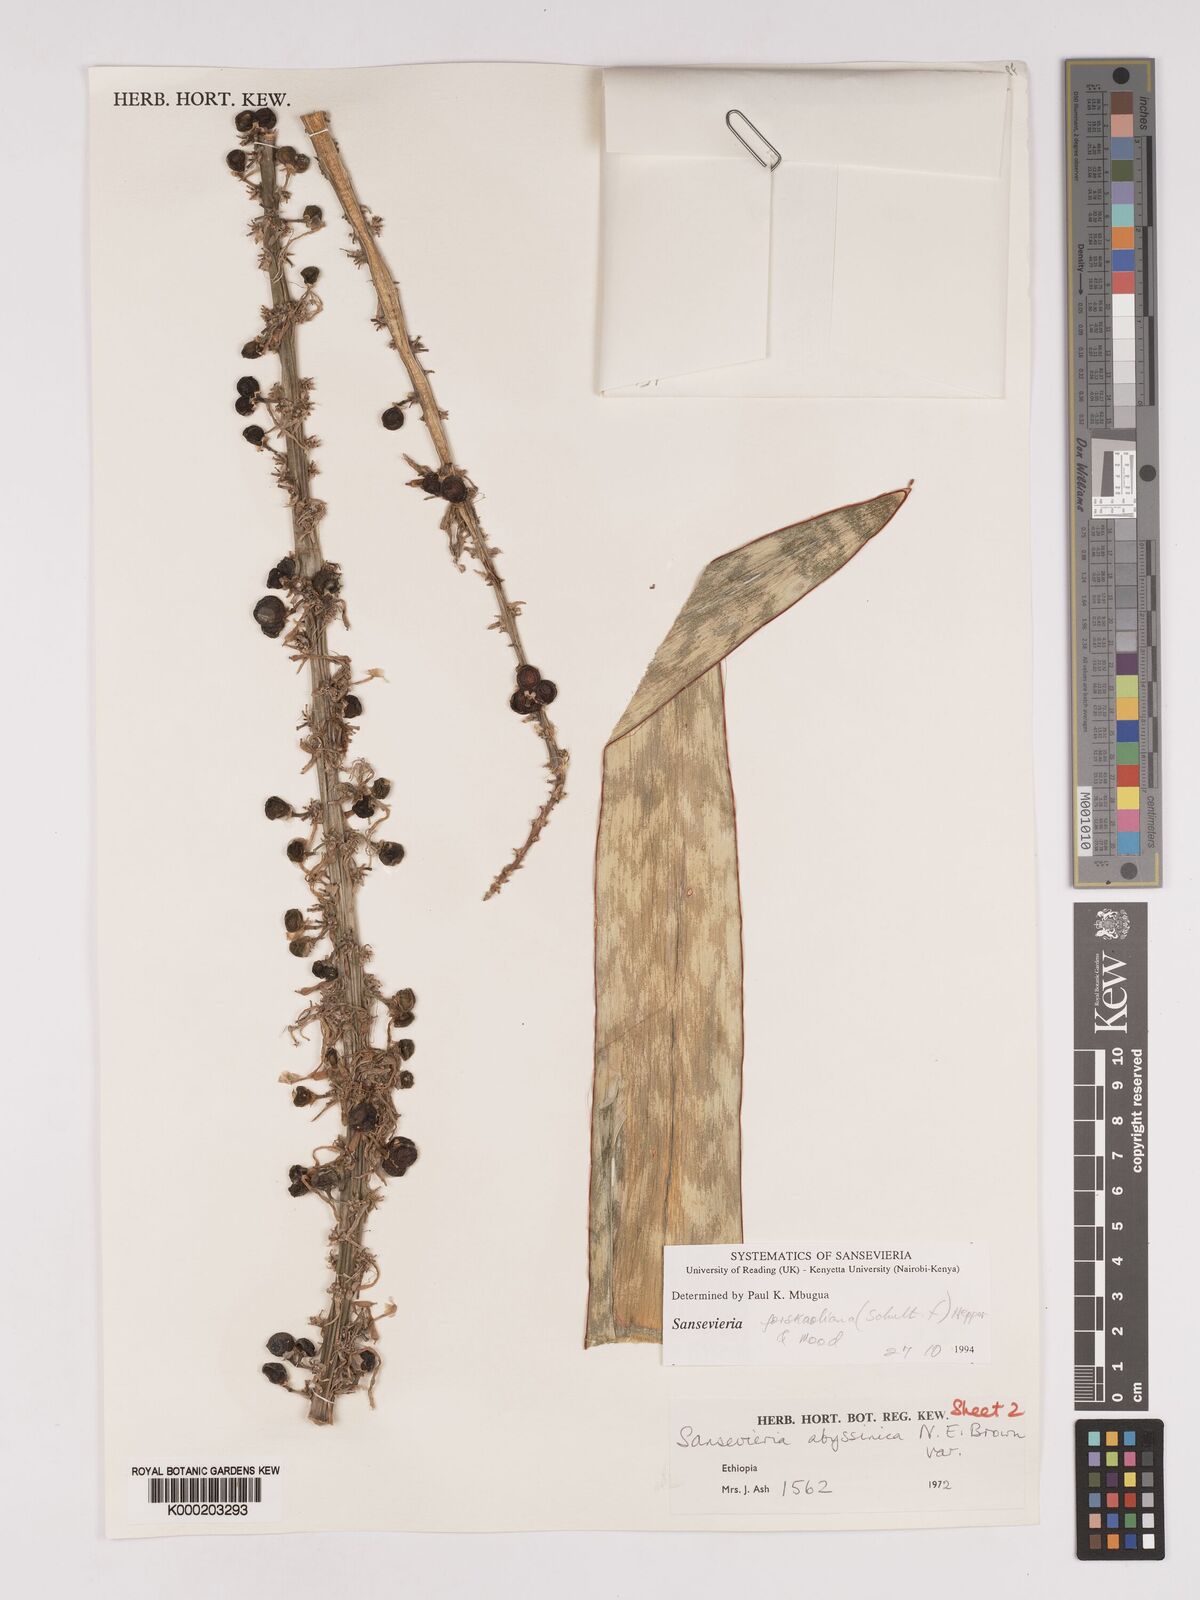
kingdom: Plantae
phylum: Tracheophyta
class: Liliopsida
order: Asparagales
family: Asparagaceae
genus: Dracaena
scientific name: Dracaena forskaliana
